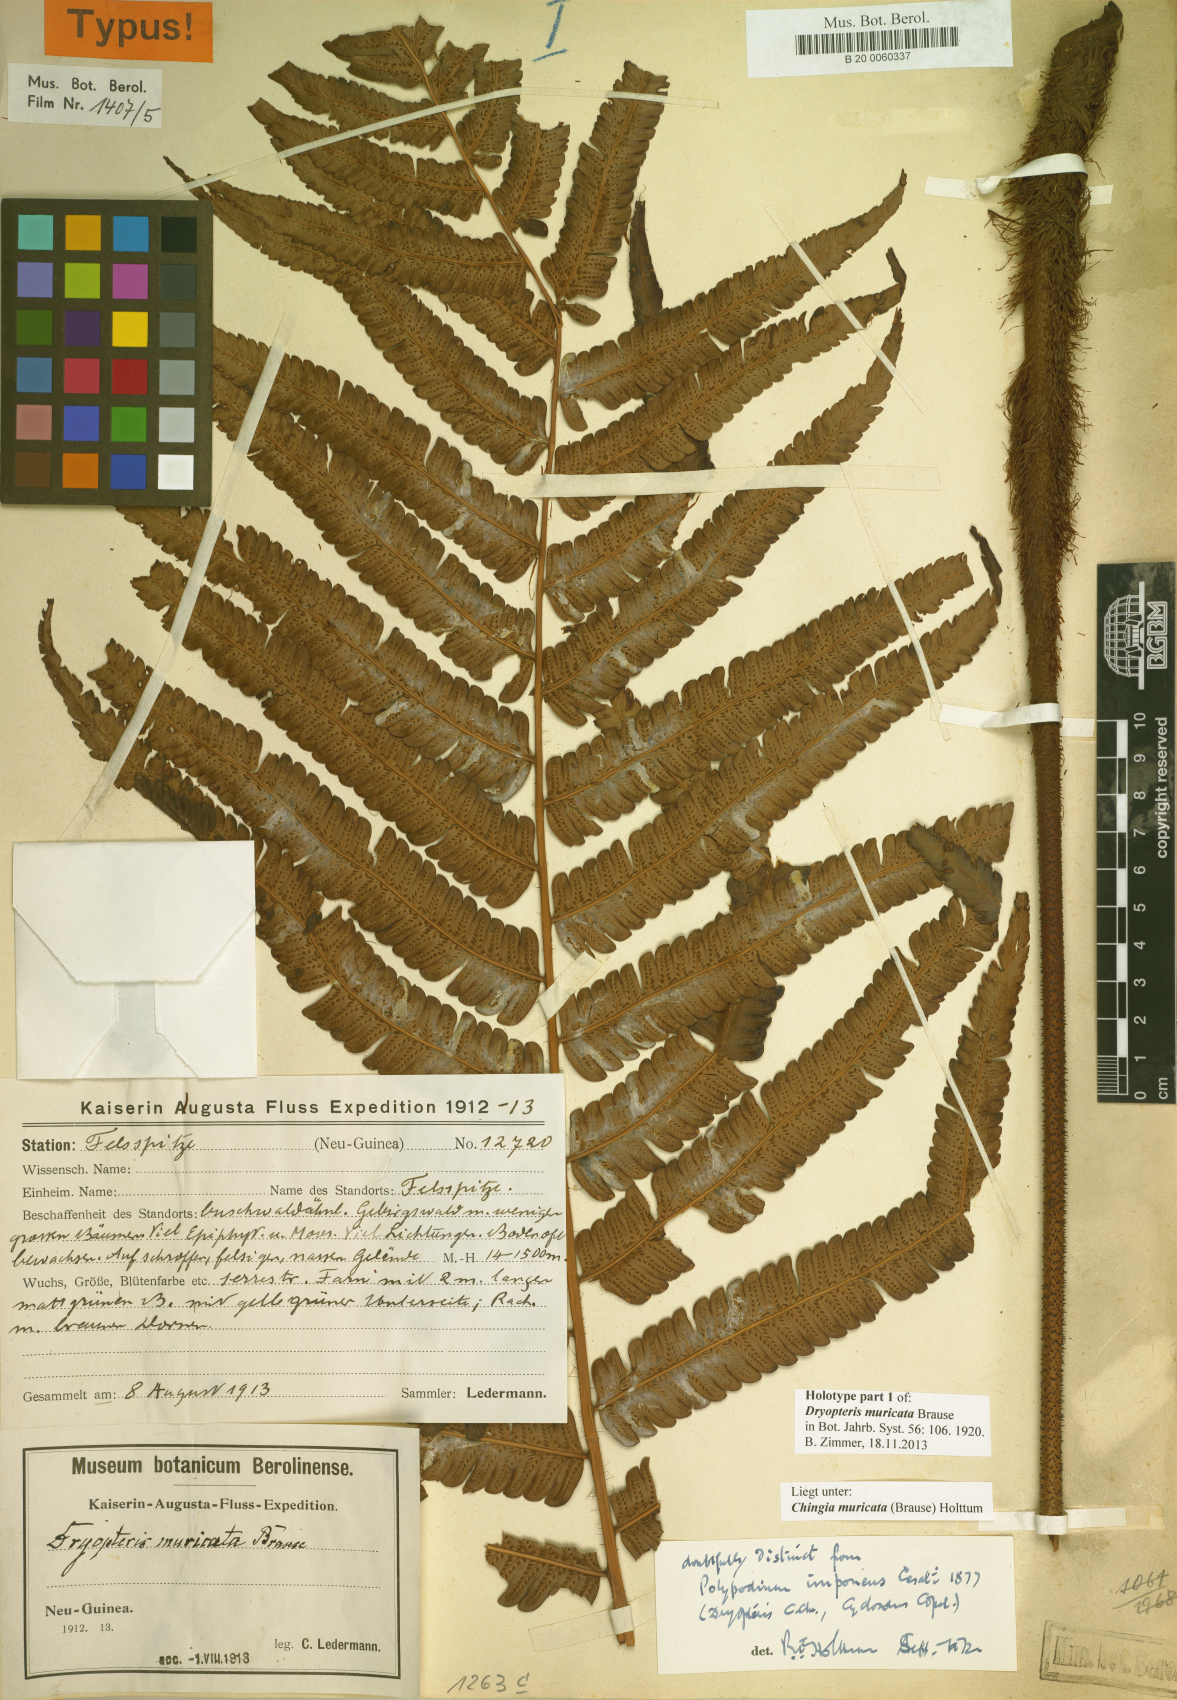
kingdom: Plantae
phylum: Tracheophyta
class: Polypodiopsida
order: Polypodiales
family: Thelypteridaceae
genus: Chingia
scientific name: Chingia muricata
